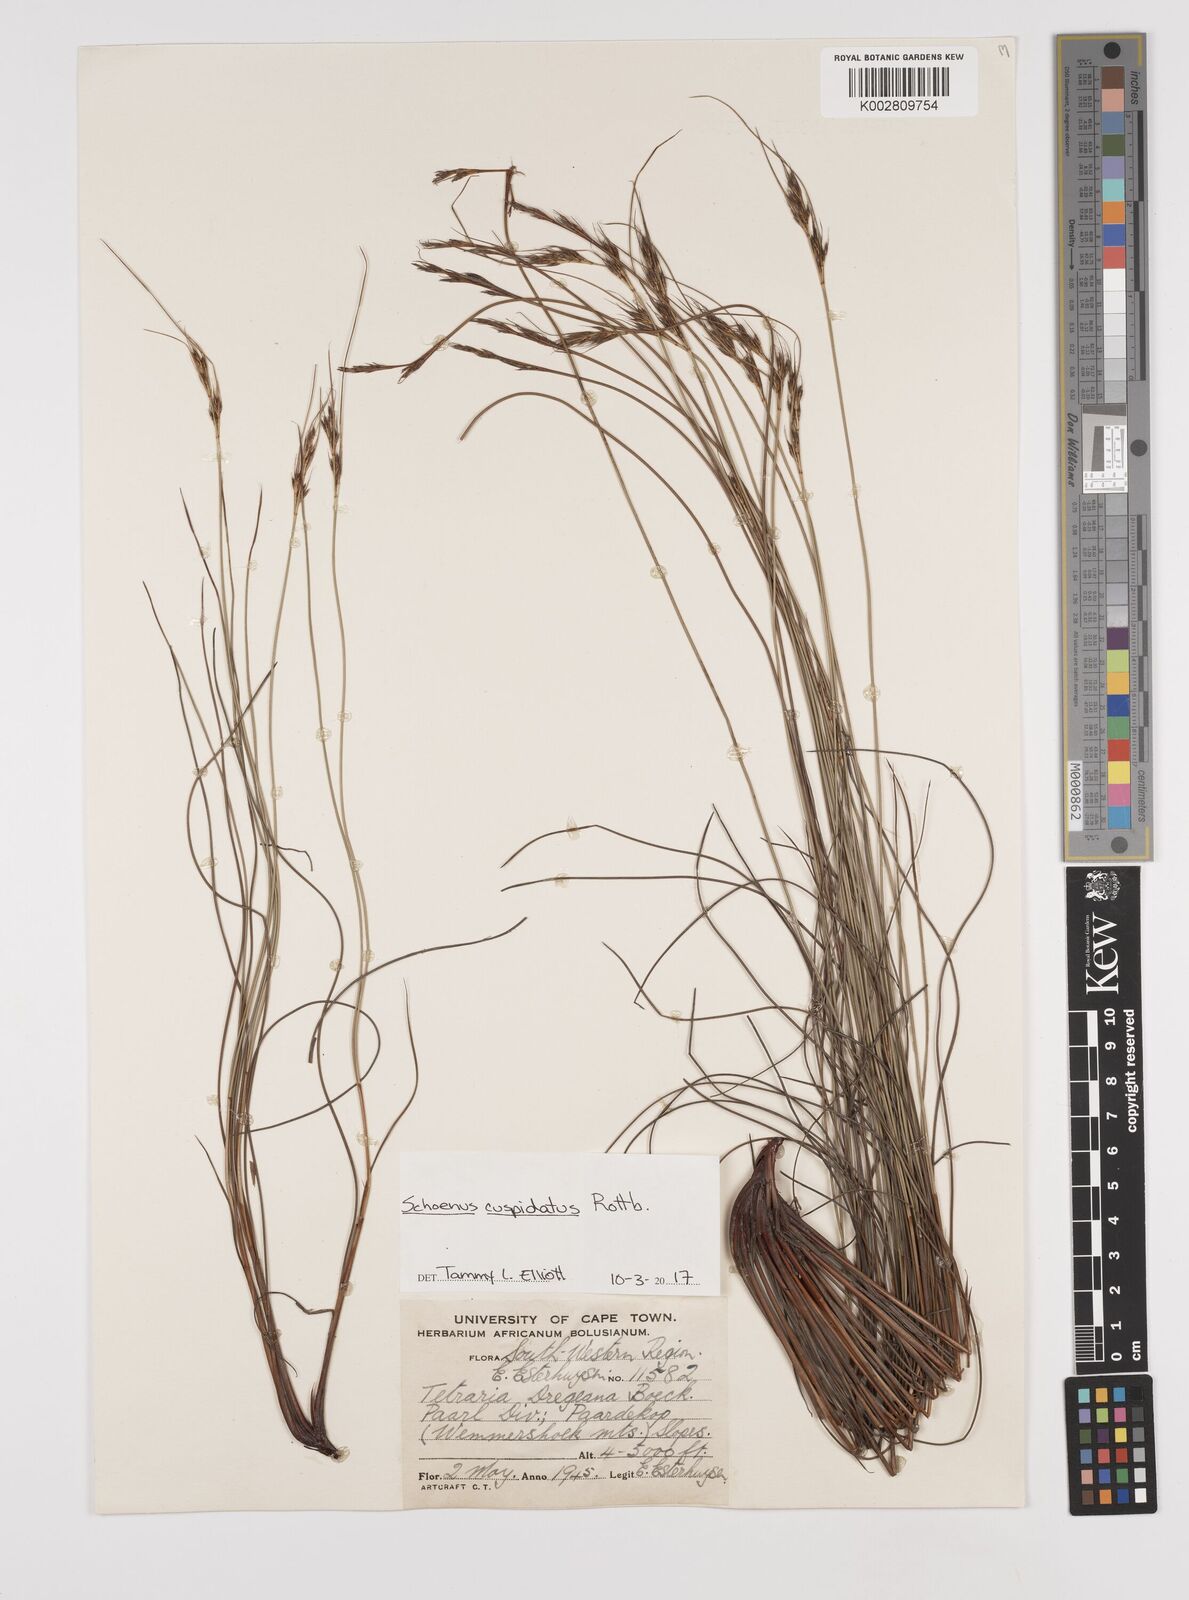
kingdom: Plantae
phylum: Tracheophyta
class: Liliopsida
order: Poales
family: Cyperaceae
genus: Schoenus
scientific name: Schoenus cuspidatus
